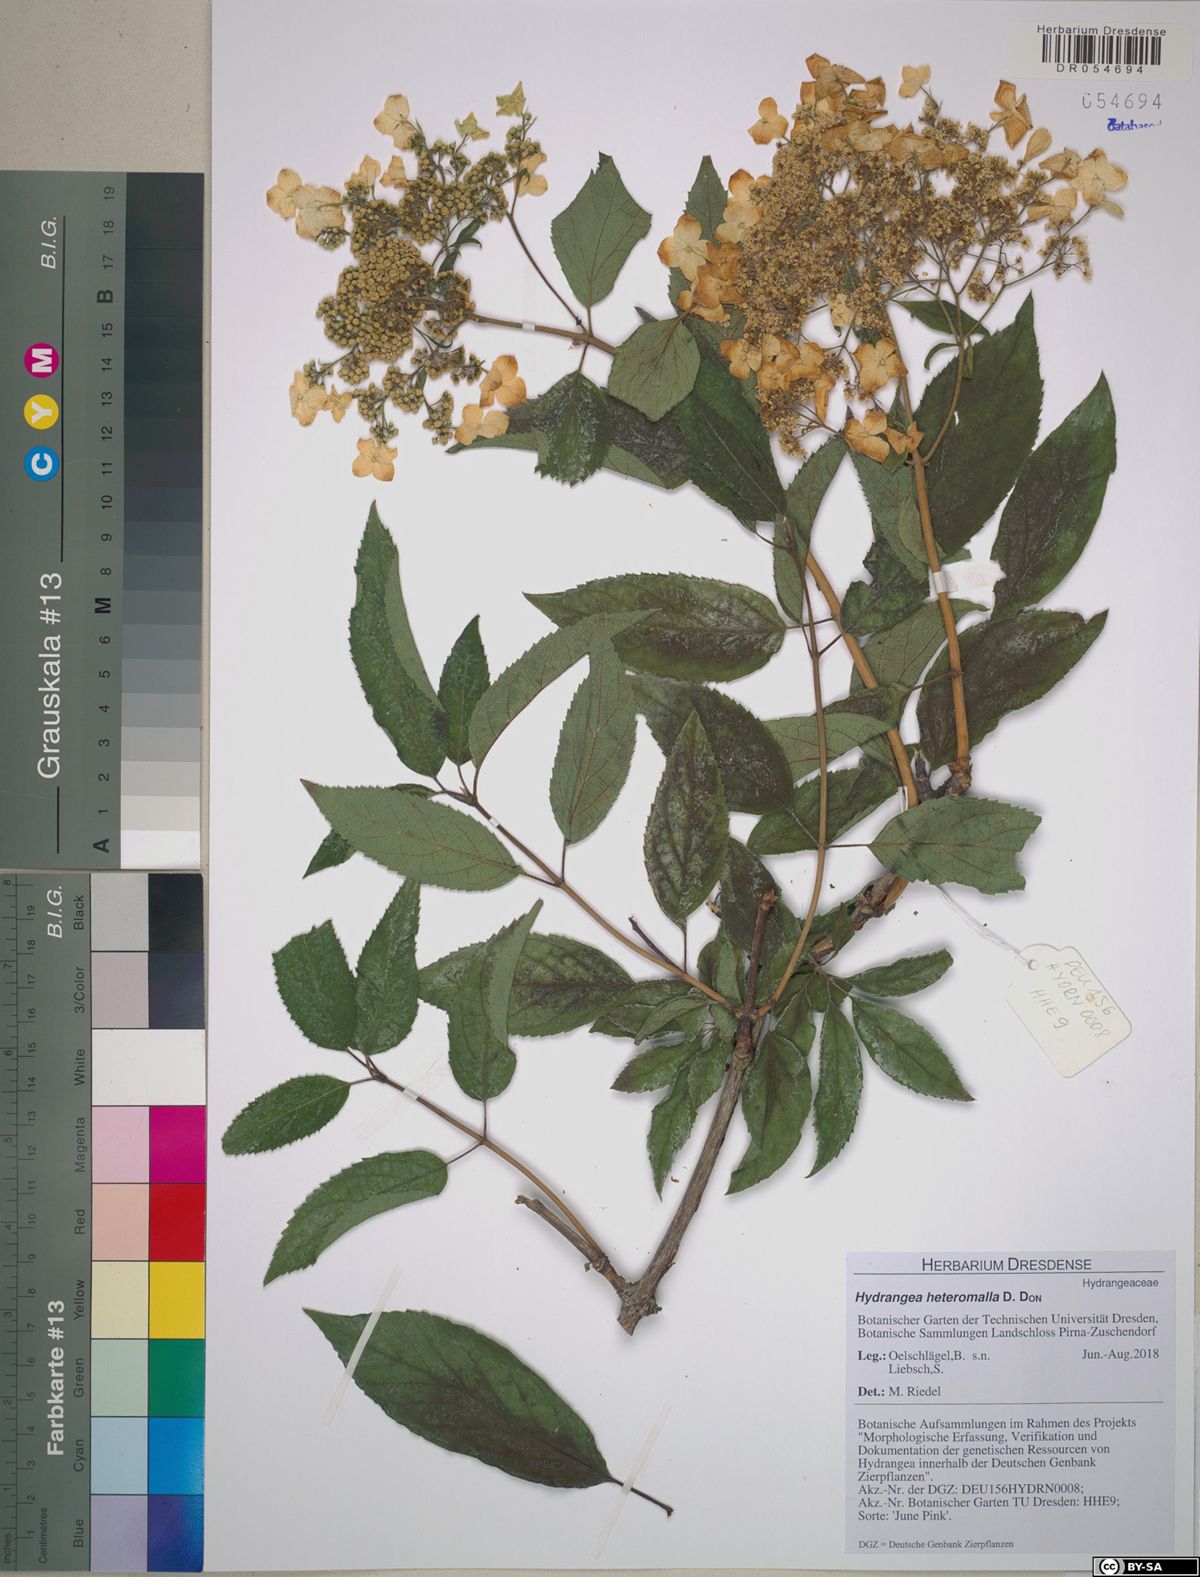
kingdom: Plantae
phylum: Tracheophyta
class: Magnoliopsida
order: Cornales
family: Hydrangeaceae
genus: Hydrangea
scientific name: Hydrangea heteromalla
